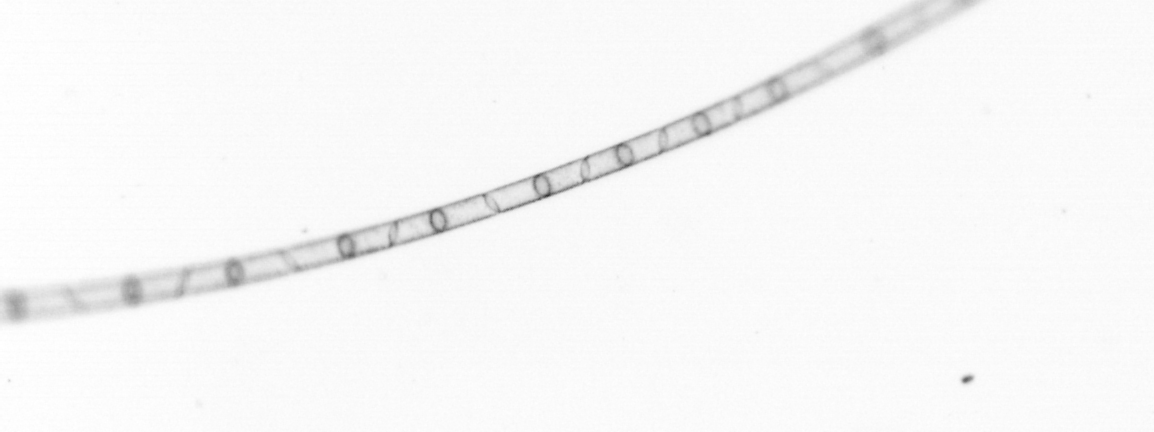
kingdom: Chromista
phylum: Ochrophyta
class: Bacillariophyceae
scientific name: Bacillariophyceae
